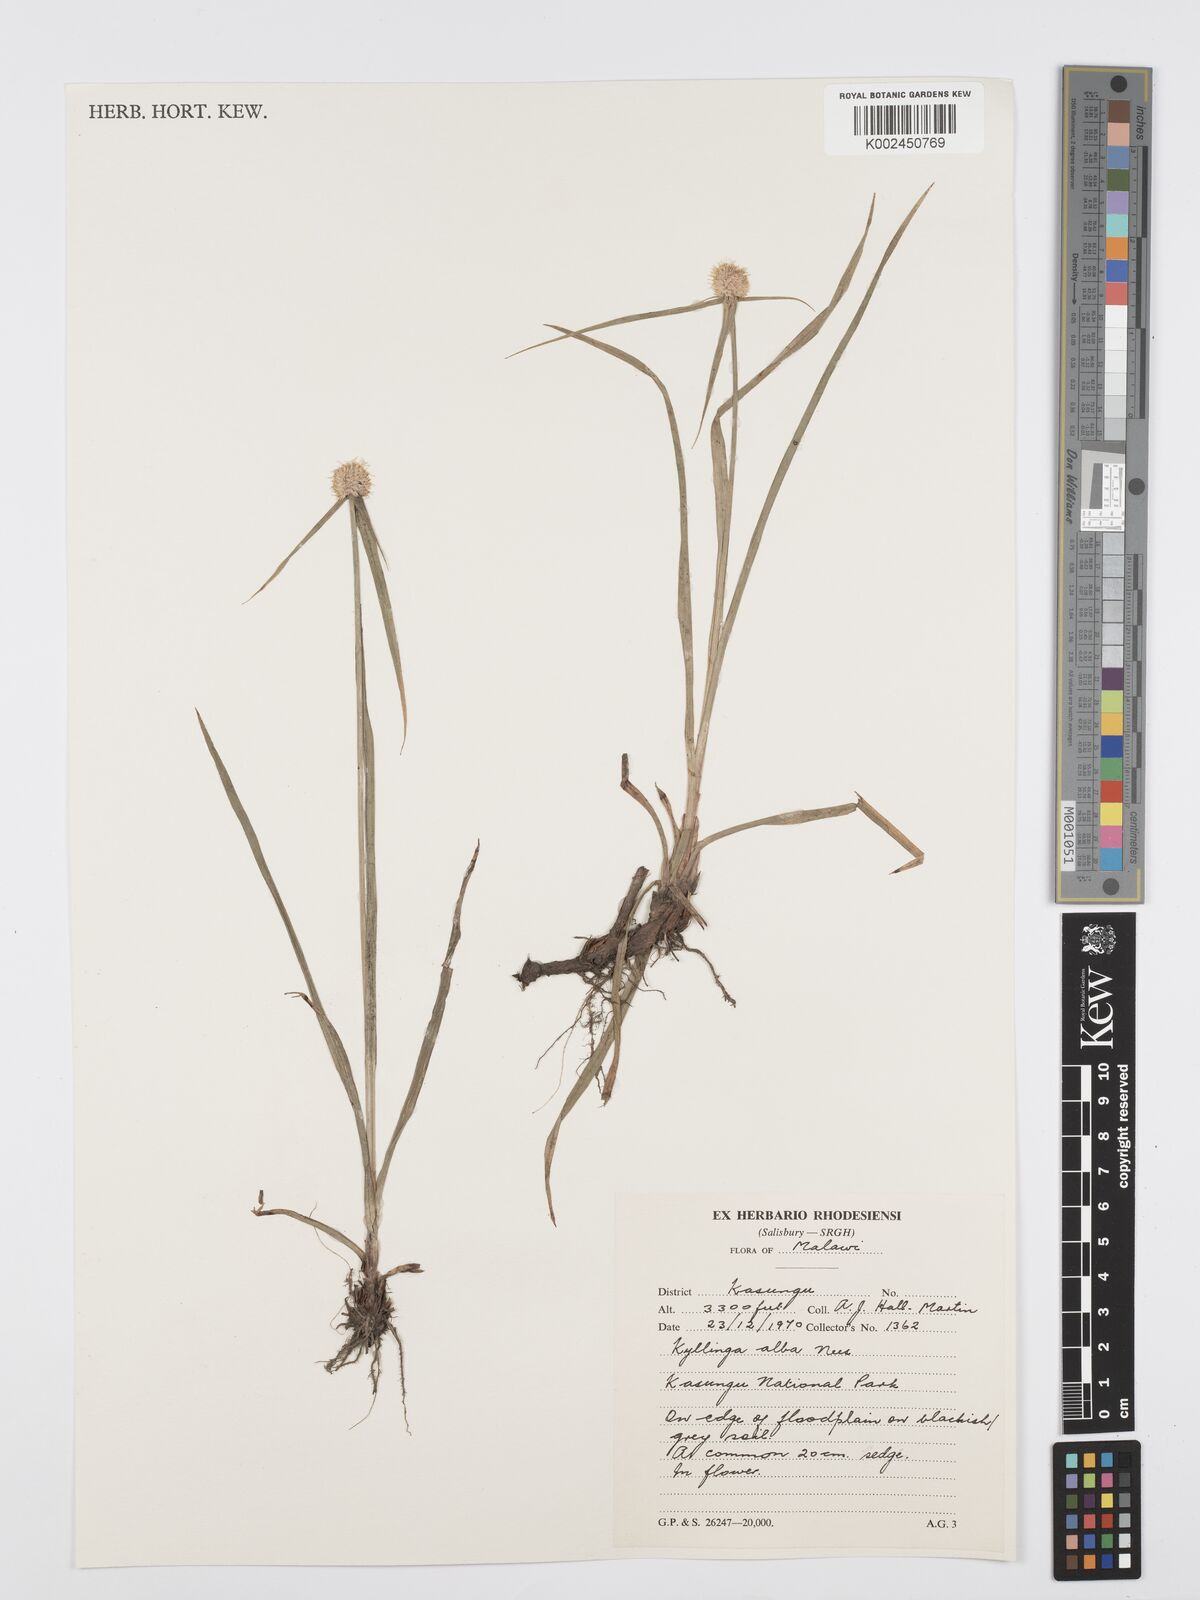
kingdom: Plantae
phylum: Tracheophyta
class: Liliopsida
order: Poales
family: Cyperaceae
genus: Cyperus
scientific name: Cyperus rukwanus
